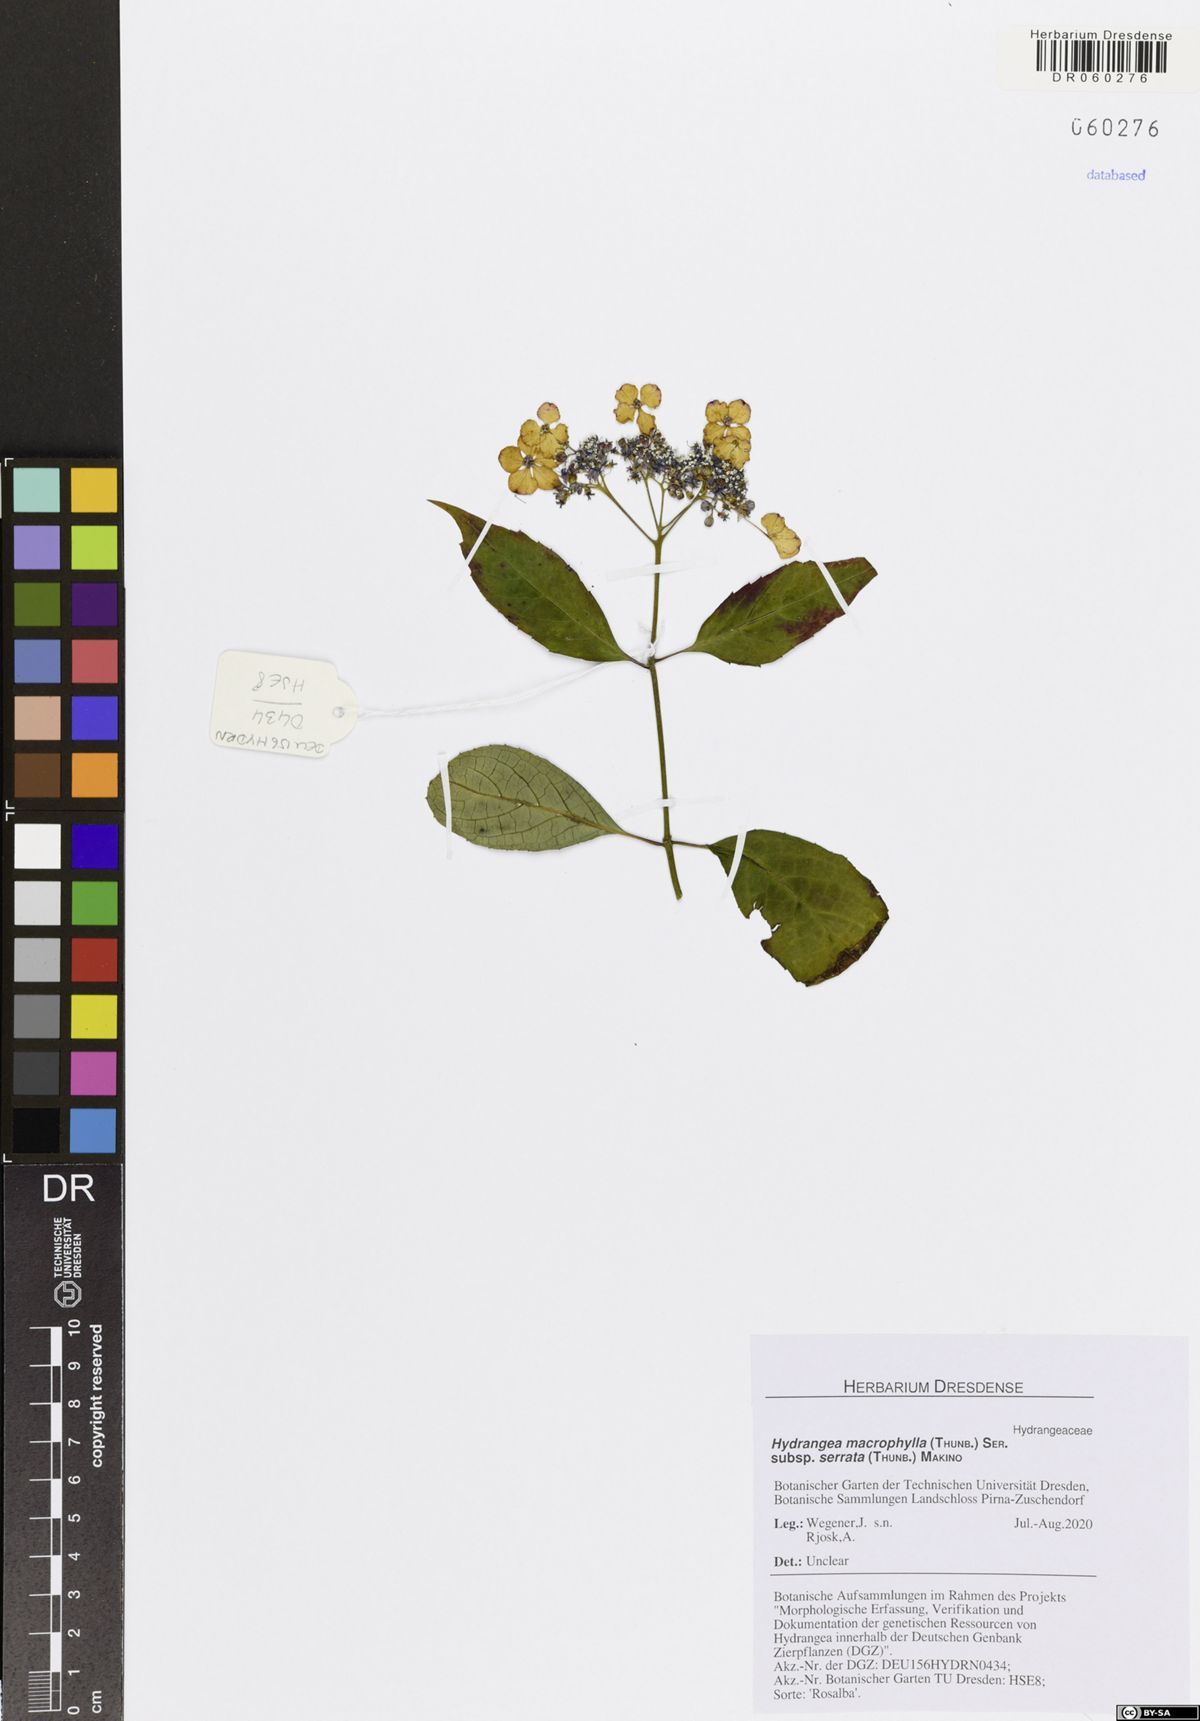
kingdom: Plantae
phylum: Tracheophyta
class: Magnoliopsida
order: Cornales
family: Hydrangeaceae
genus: Hydrangea
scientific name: Hydrangea serrata
